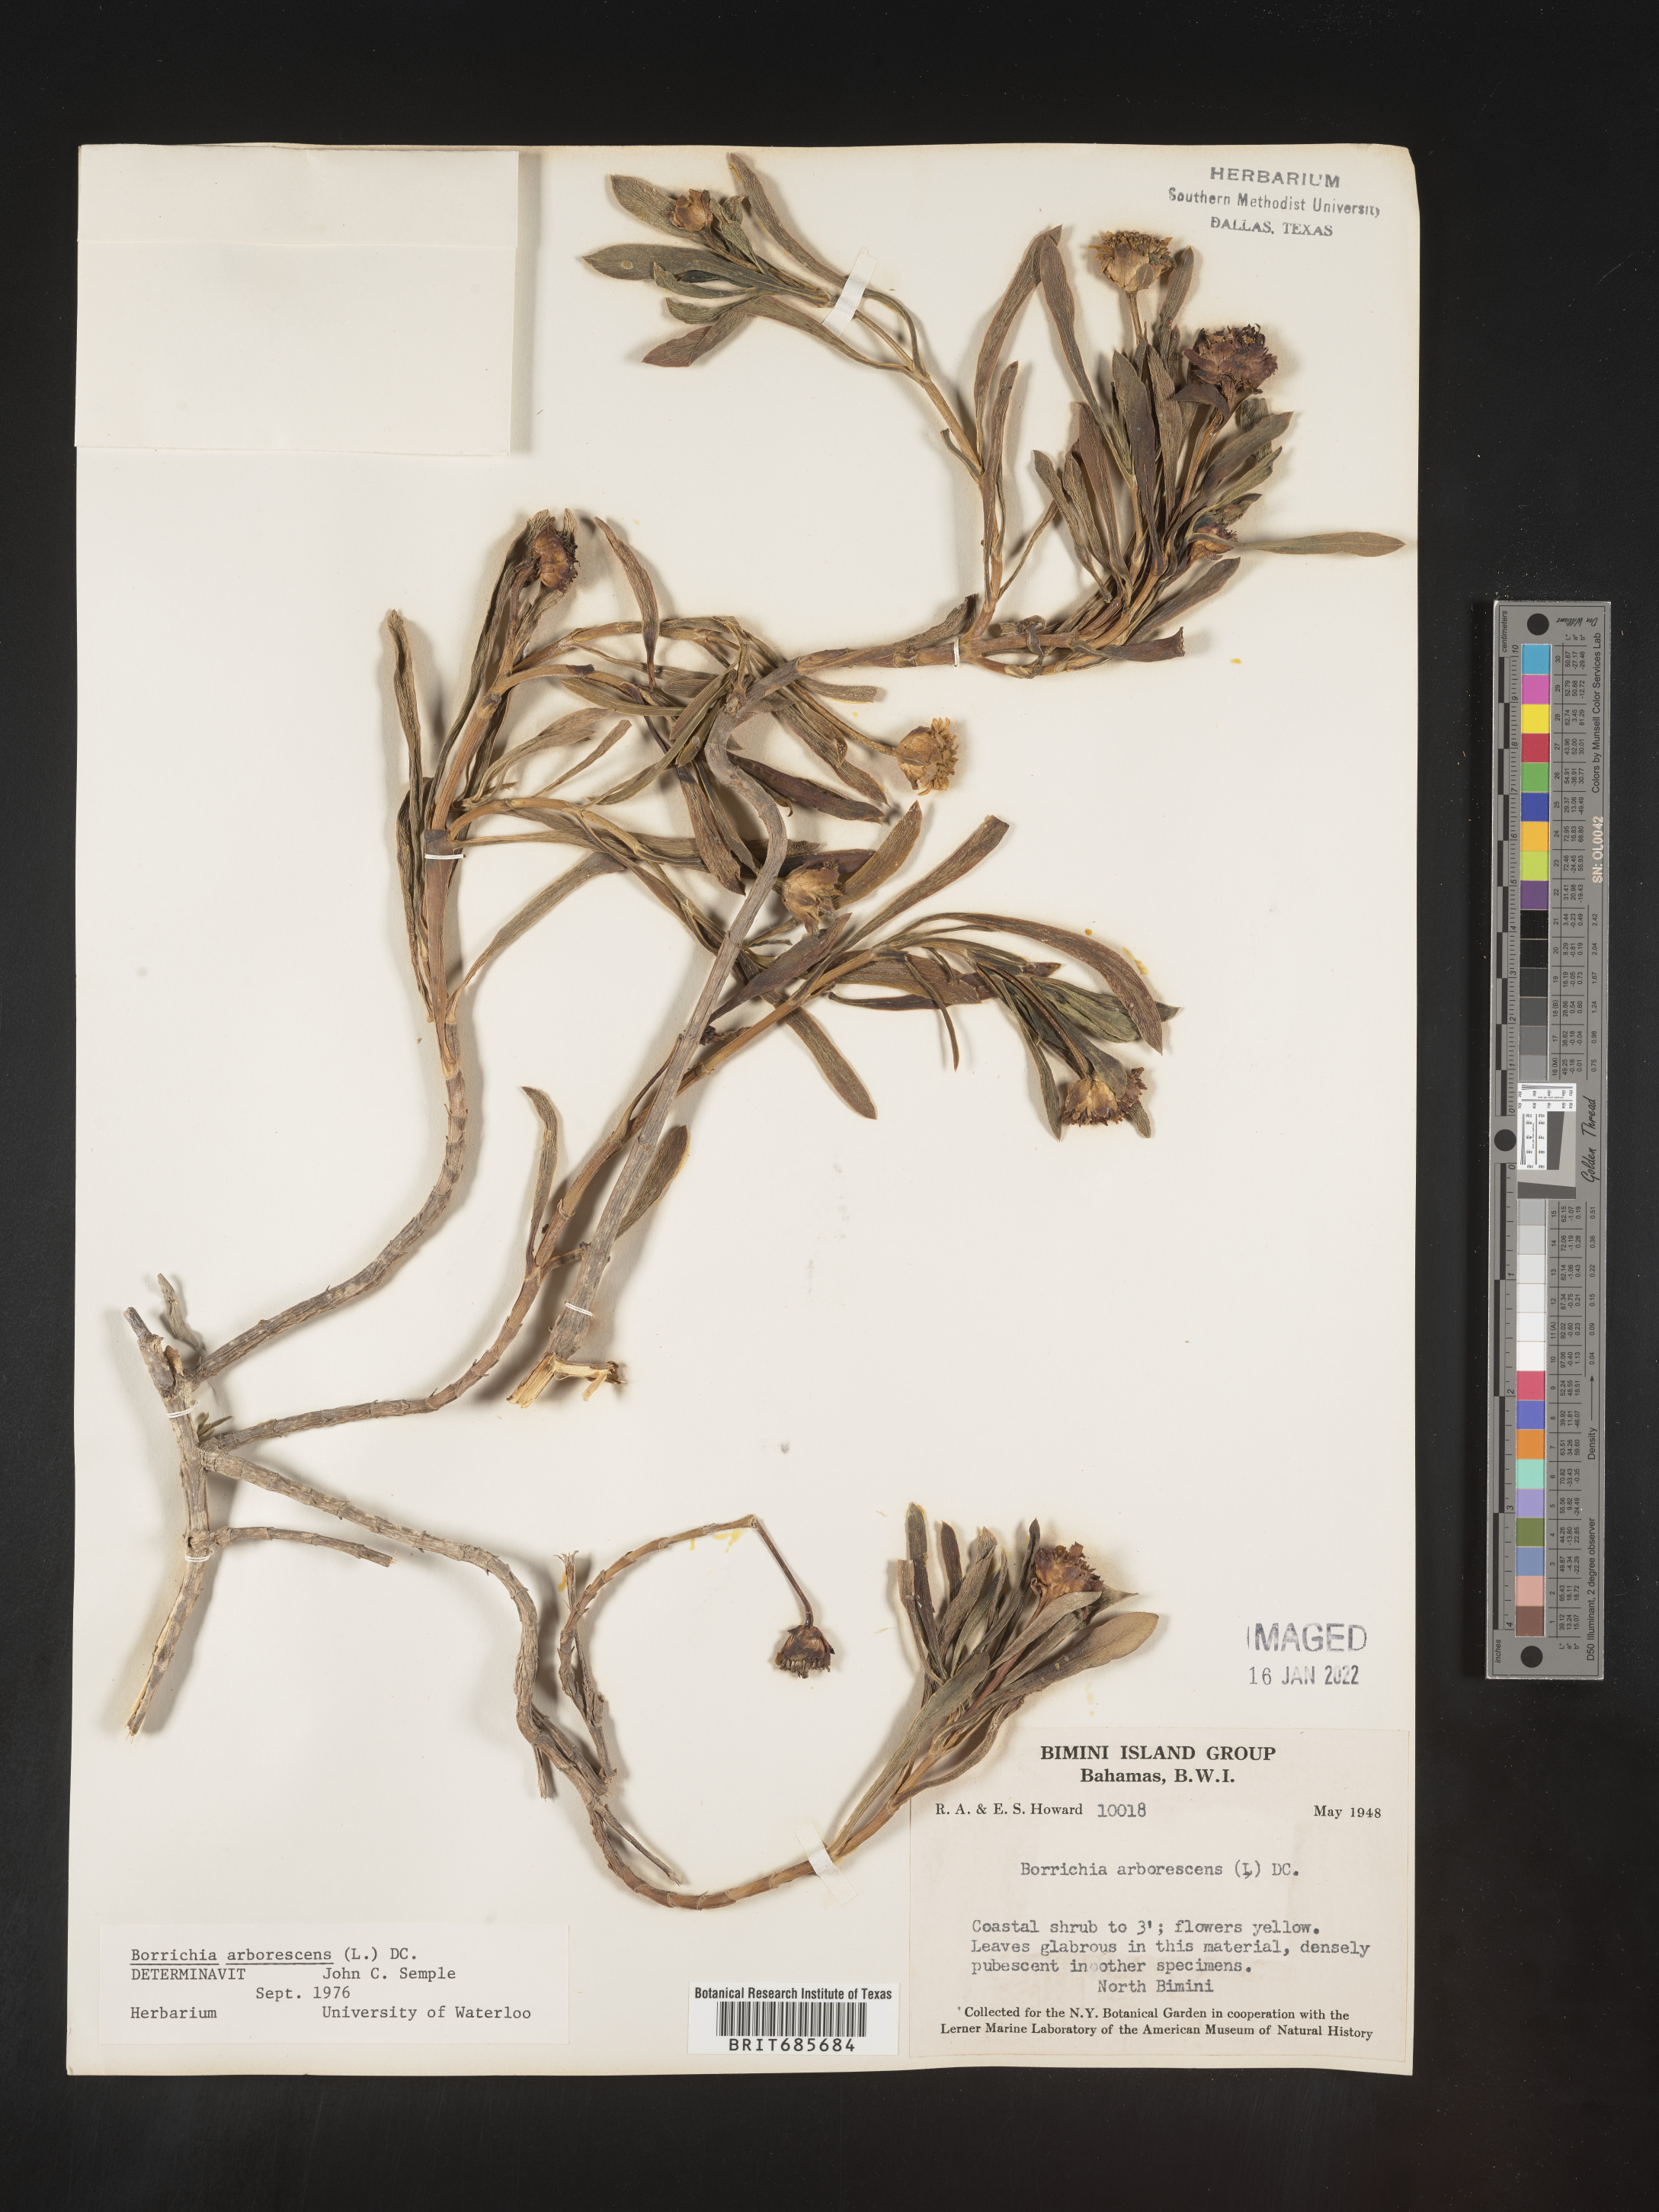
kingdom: Plantae
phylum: Tracheophyta
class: Magnoliopsida
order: Asterales
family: Asteraceae
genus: Borrichia
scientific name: Borrichia
